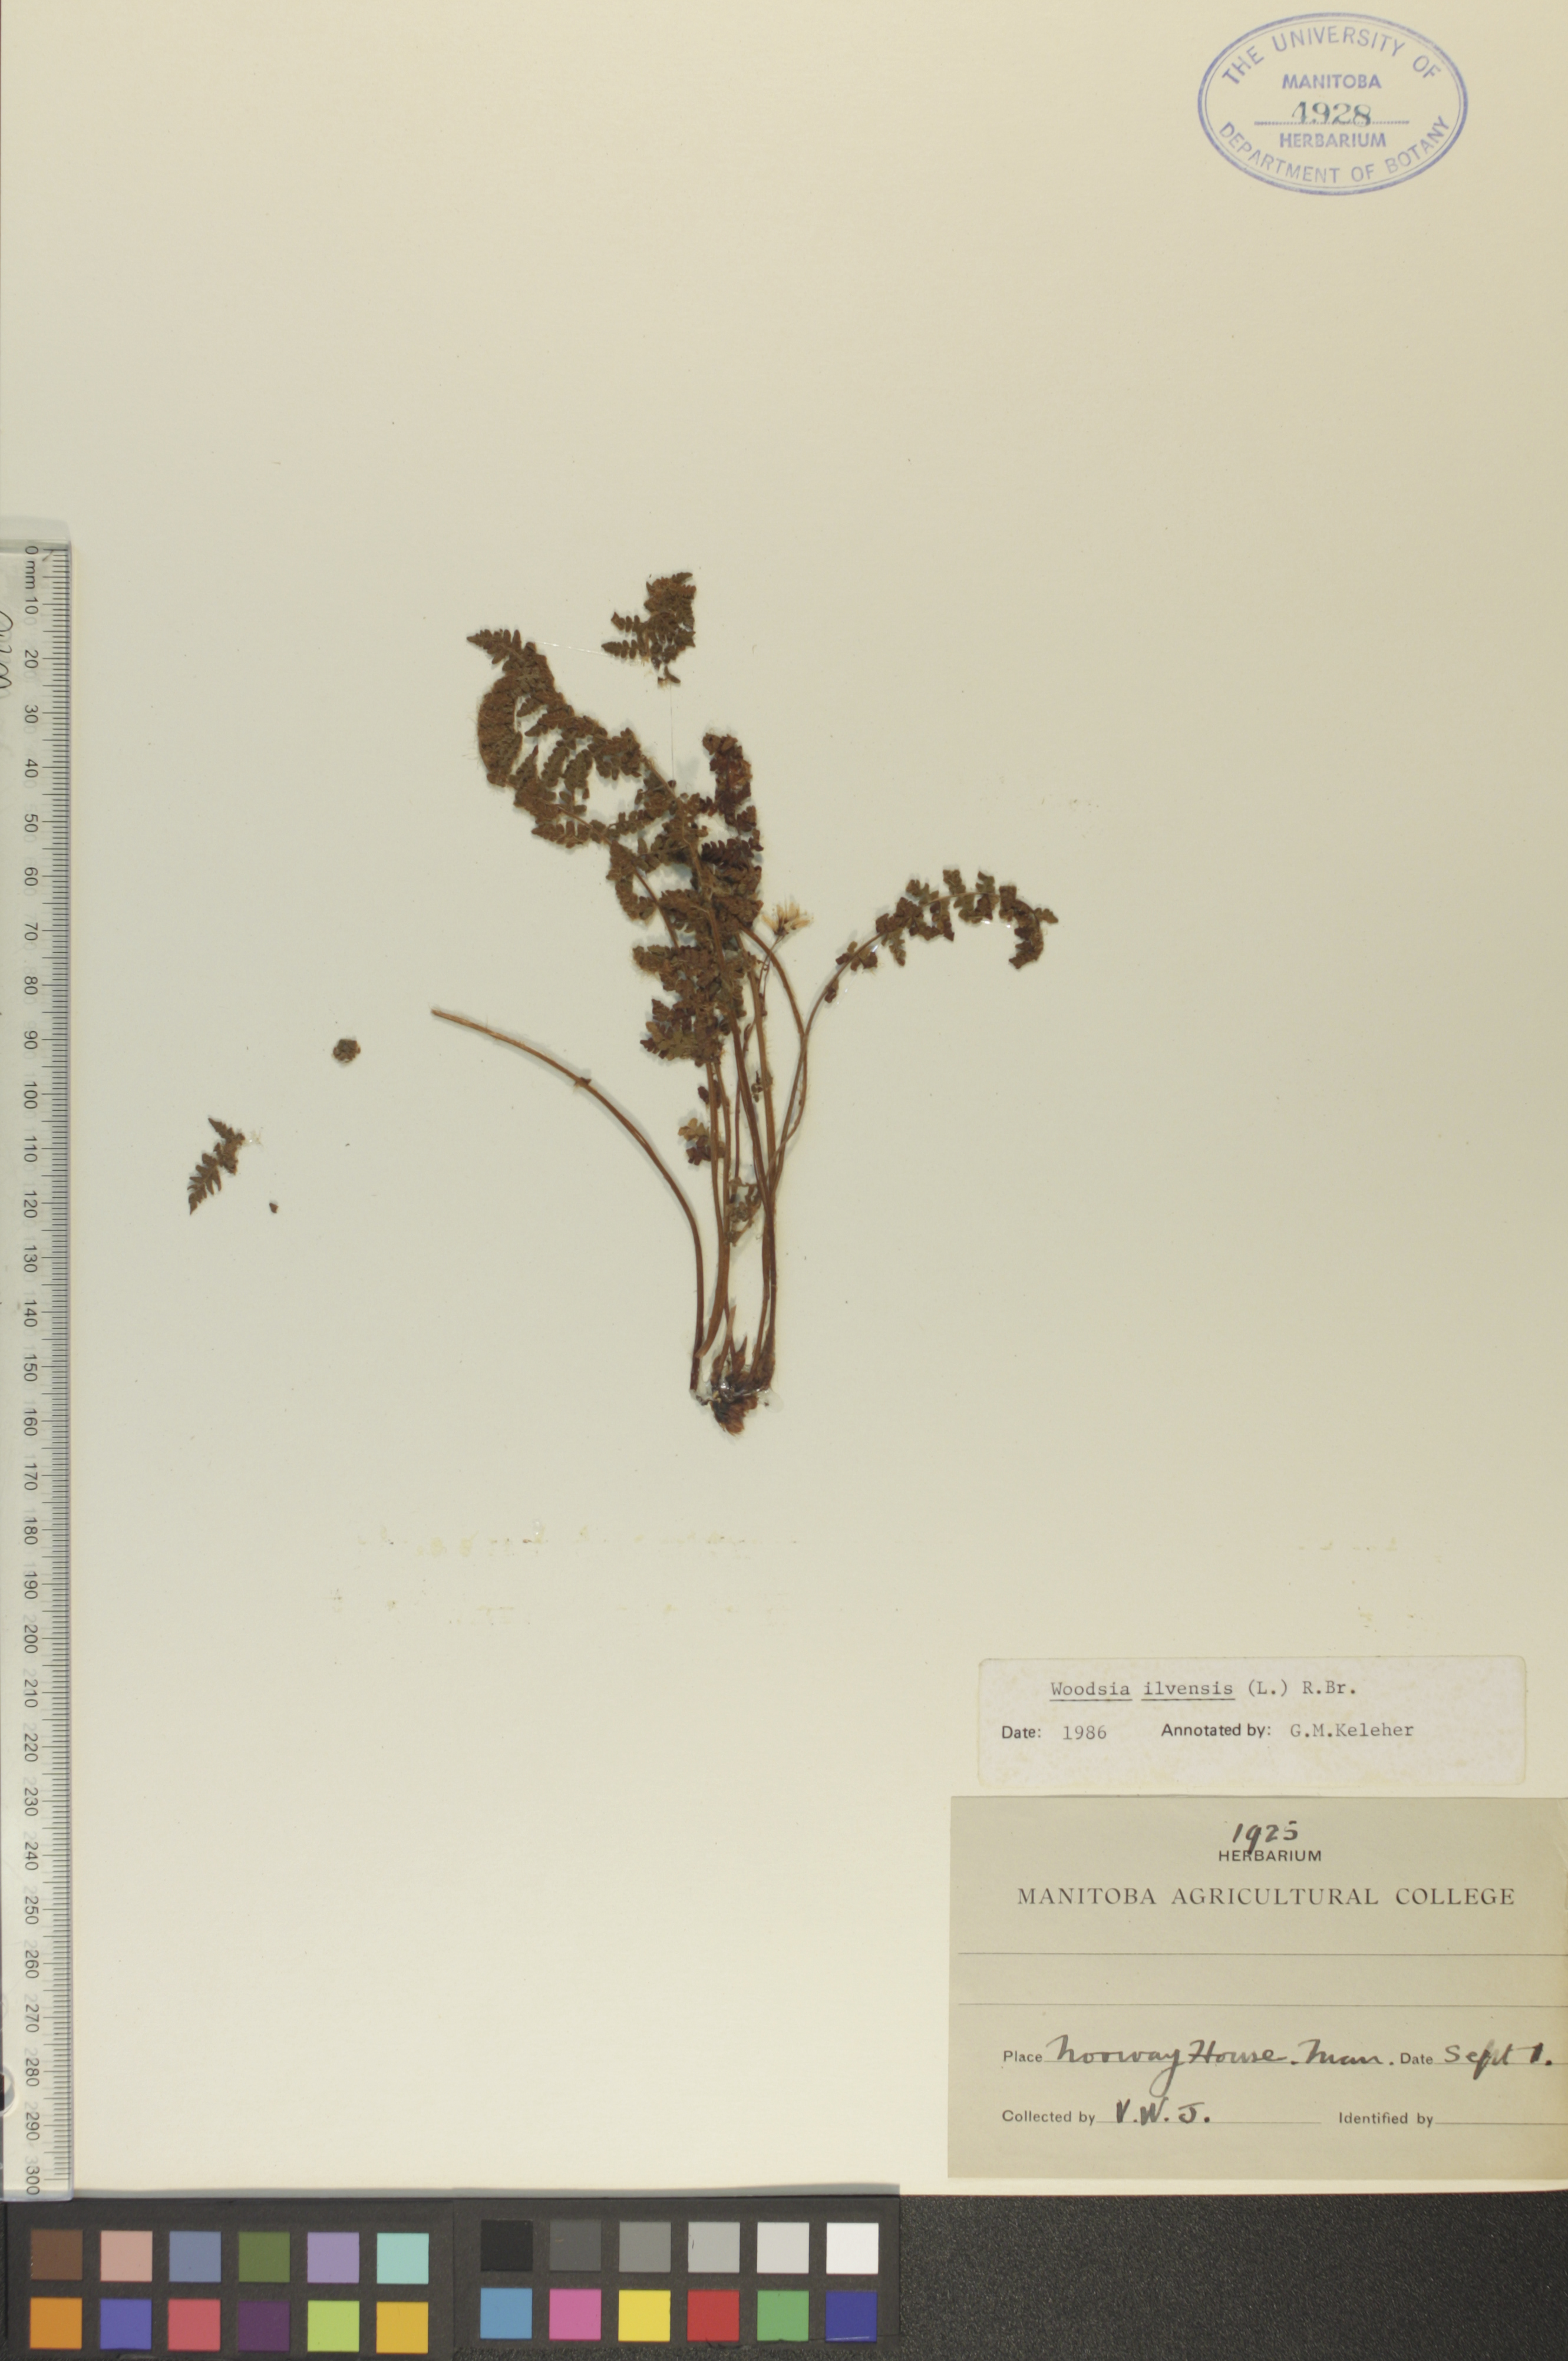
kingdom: Plantae
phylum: Tracheophyta
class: Polypodiopsida
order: Polypodiales
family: Woodsiaceae
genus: Woodsia
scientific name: Woodsia ilvensis
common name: Fragrant woodsia
